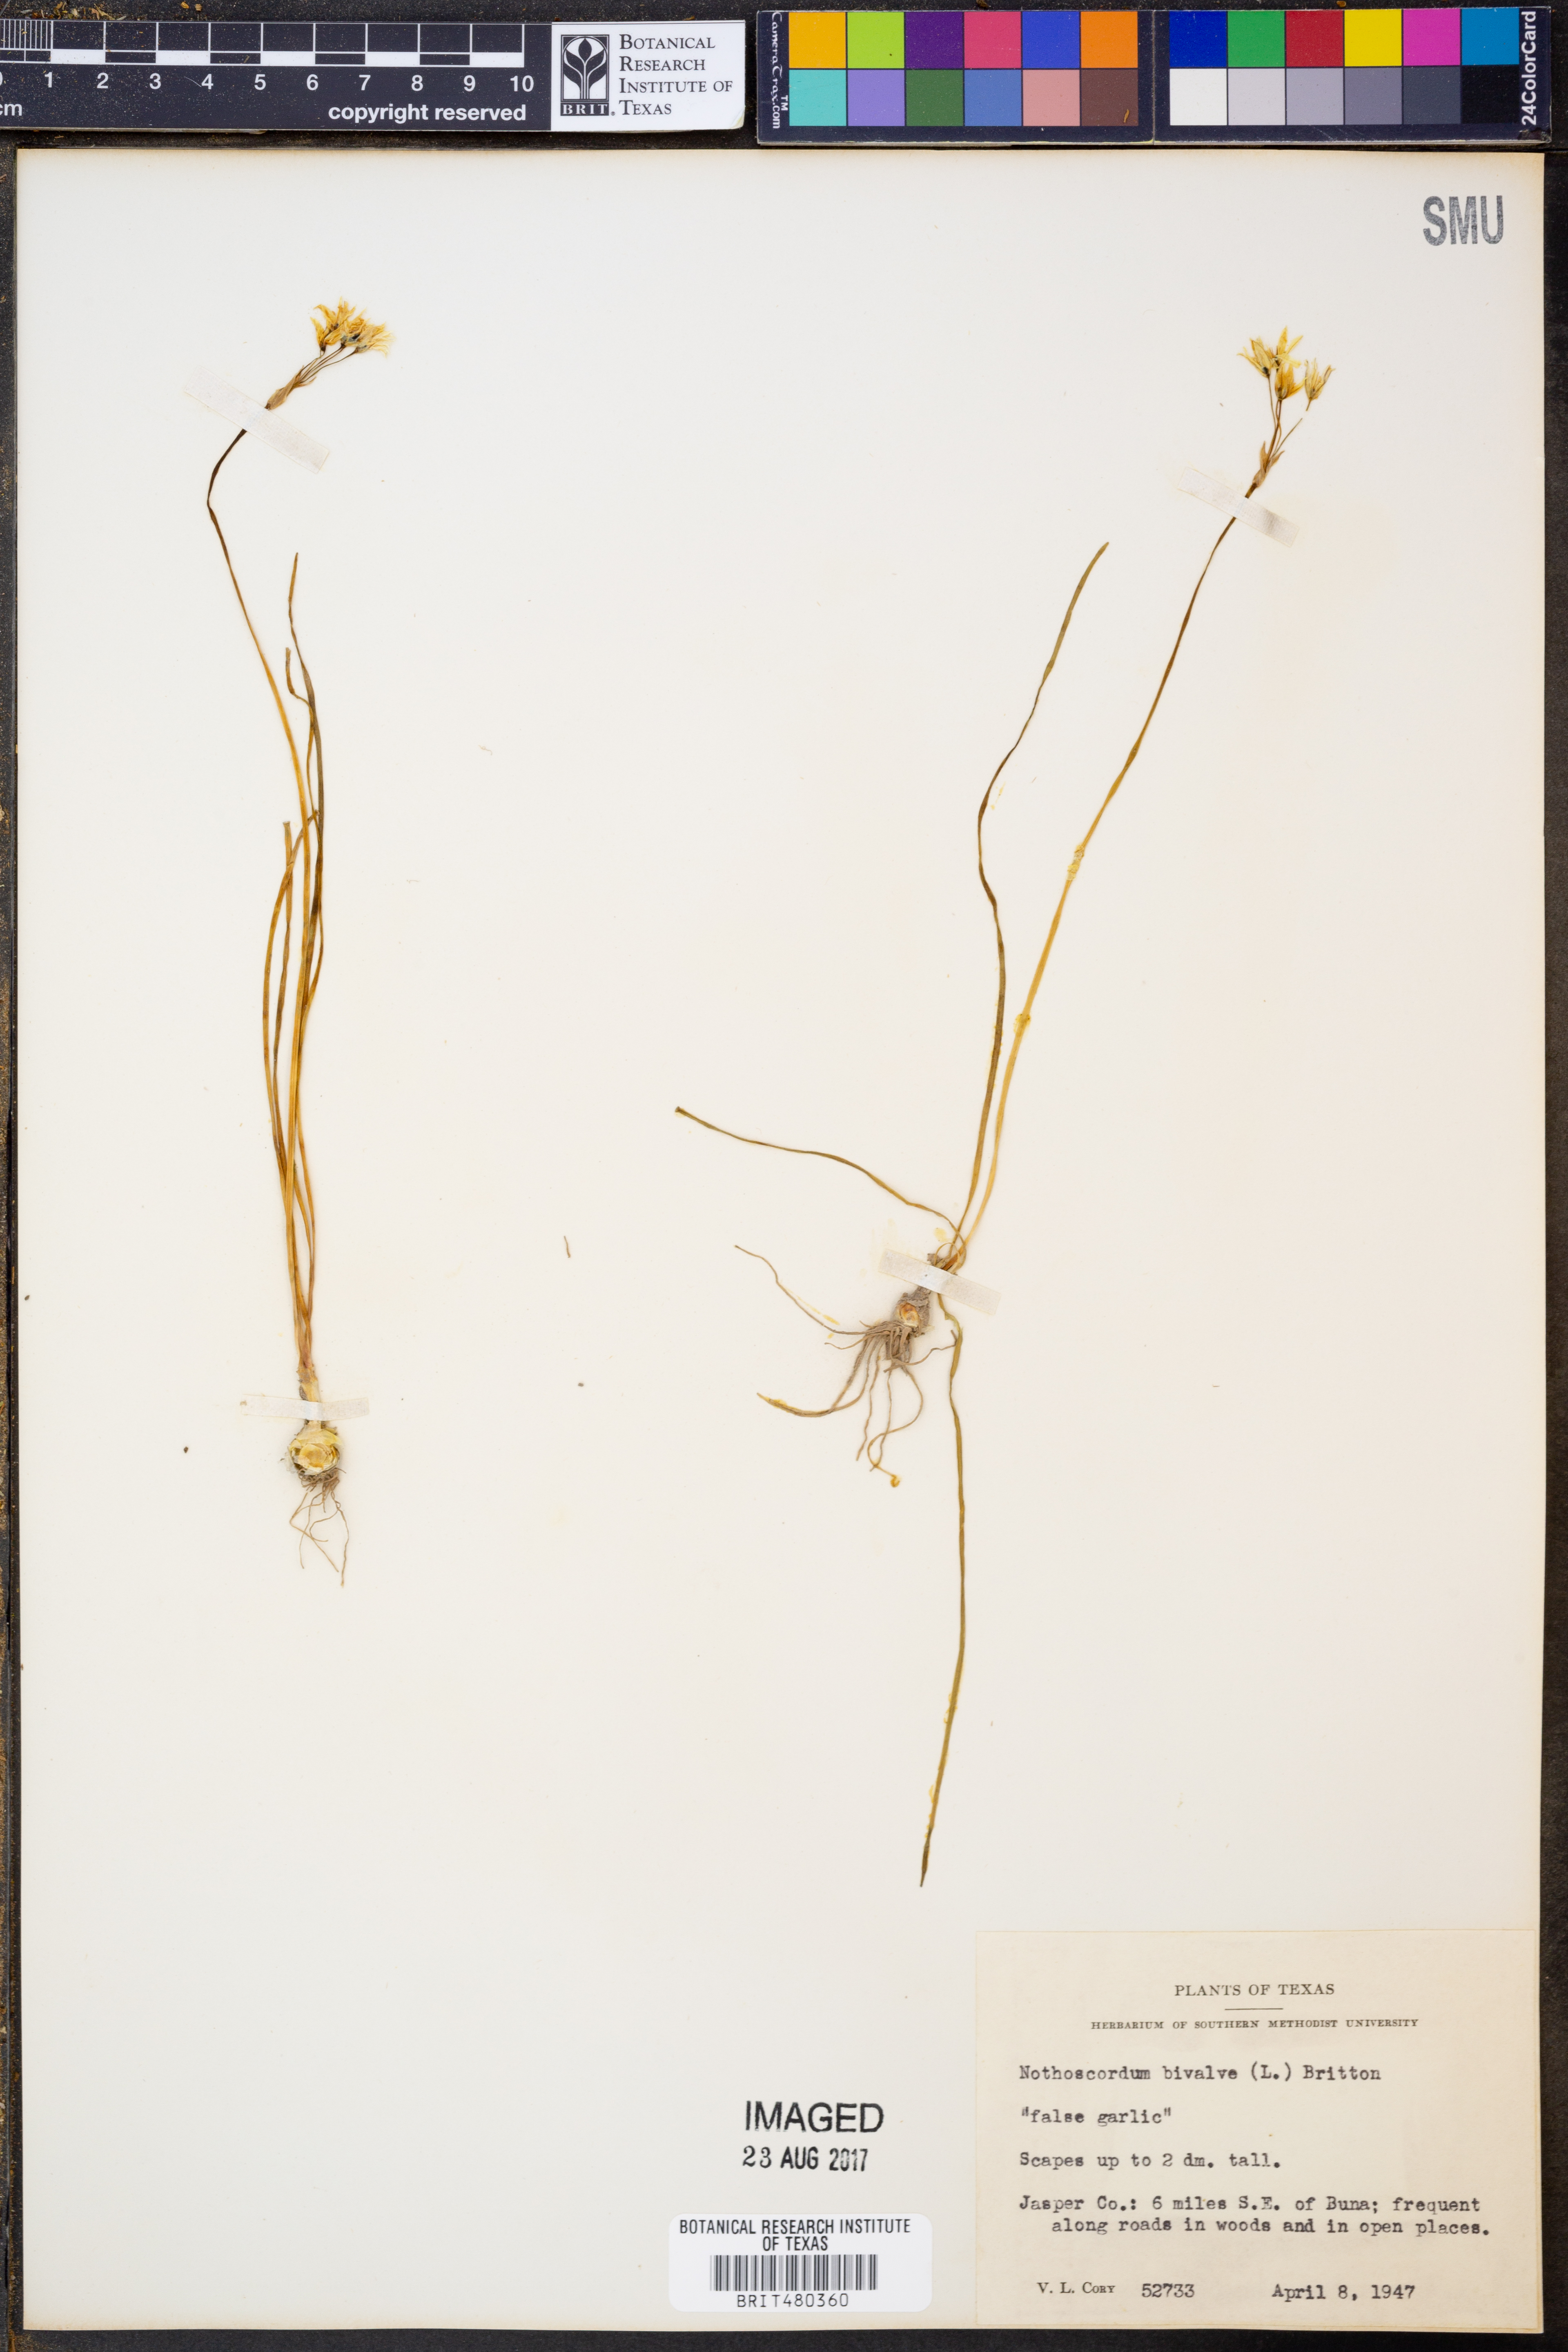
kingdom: Plantae
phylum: Tracheophyta
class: Liliopsida
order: Asparagales
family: Amaryllidaceae
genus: Nothoscordum
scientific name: Nothoscordum bivalve
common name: Crow-poison
